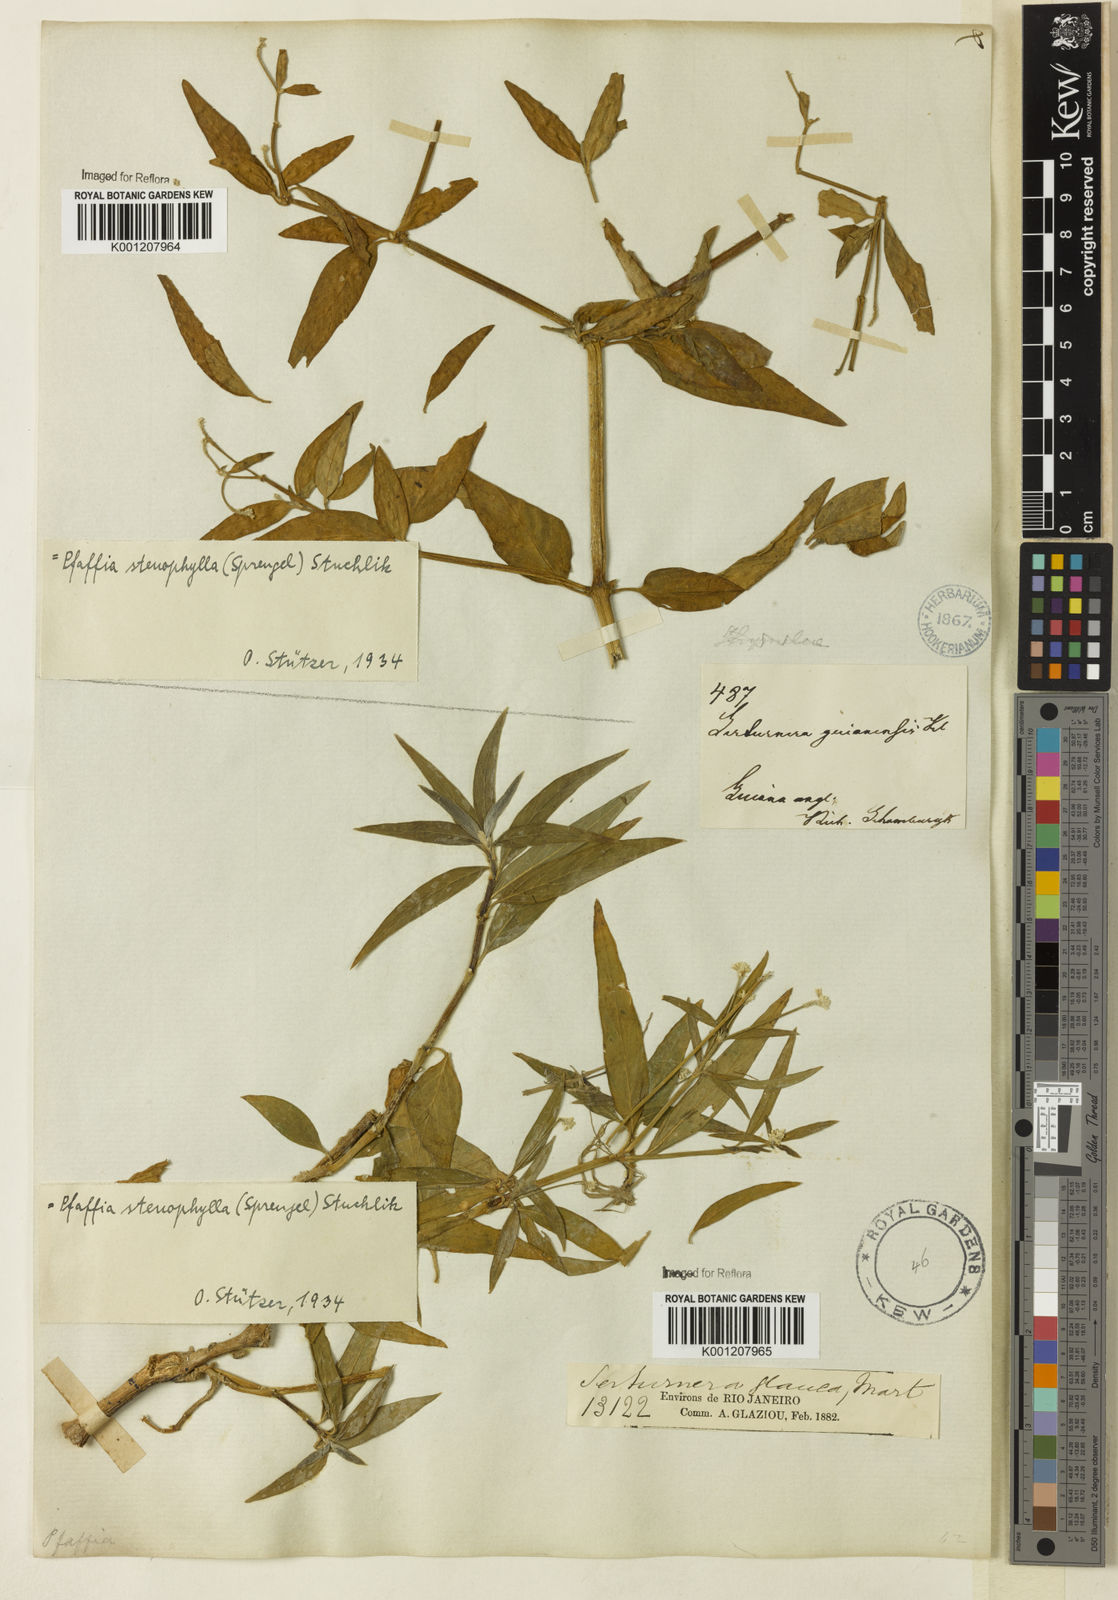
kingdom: Plantae
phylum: Tracheophyta
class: Magnoliopsida
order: Caryophyllales
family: Amaranthaceae
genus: Pfaffia
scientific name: Pfaffia
